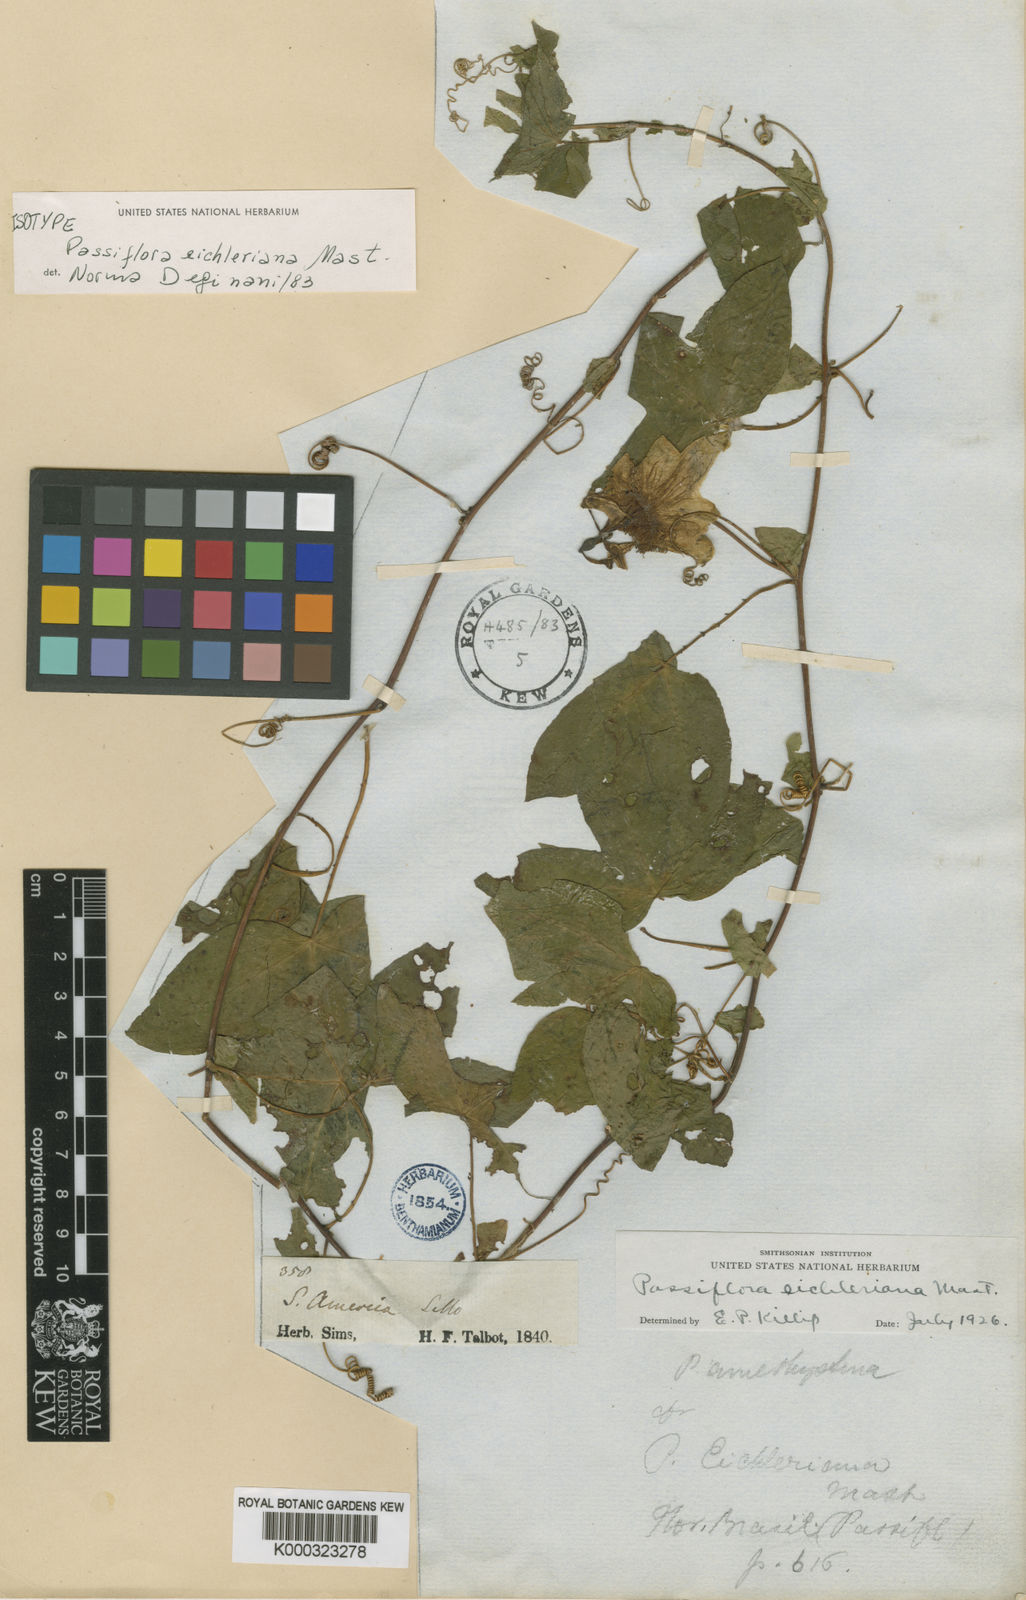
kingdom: Plantae
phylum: Tracheophyta
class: Magnoliopsida
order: Malpighiales
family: Passifloraceae
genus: Passiflora
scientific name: Passiflora eichleriana
